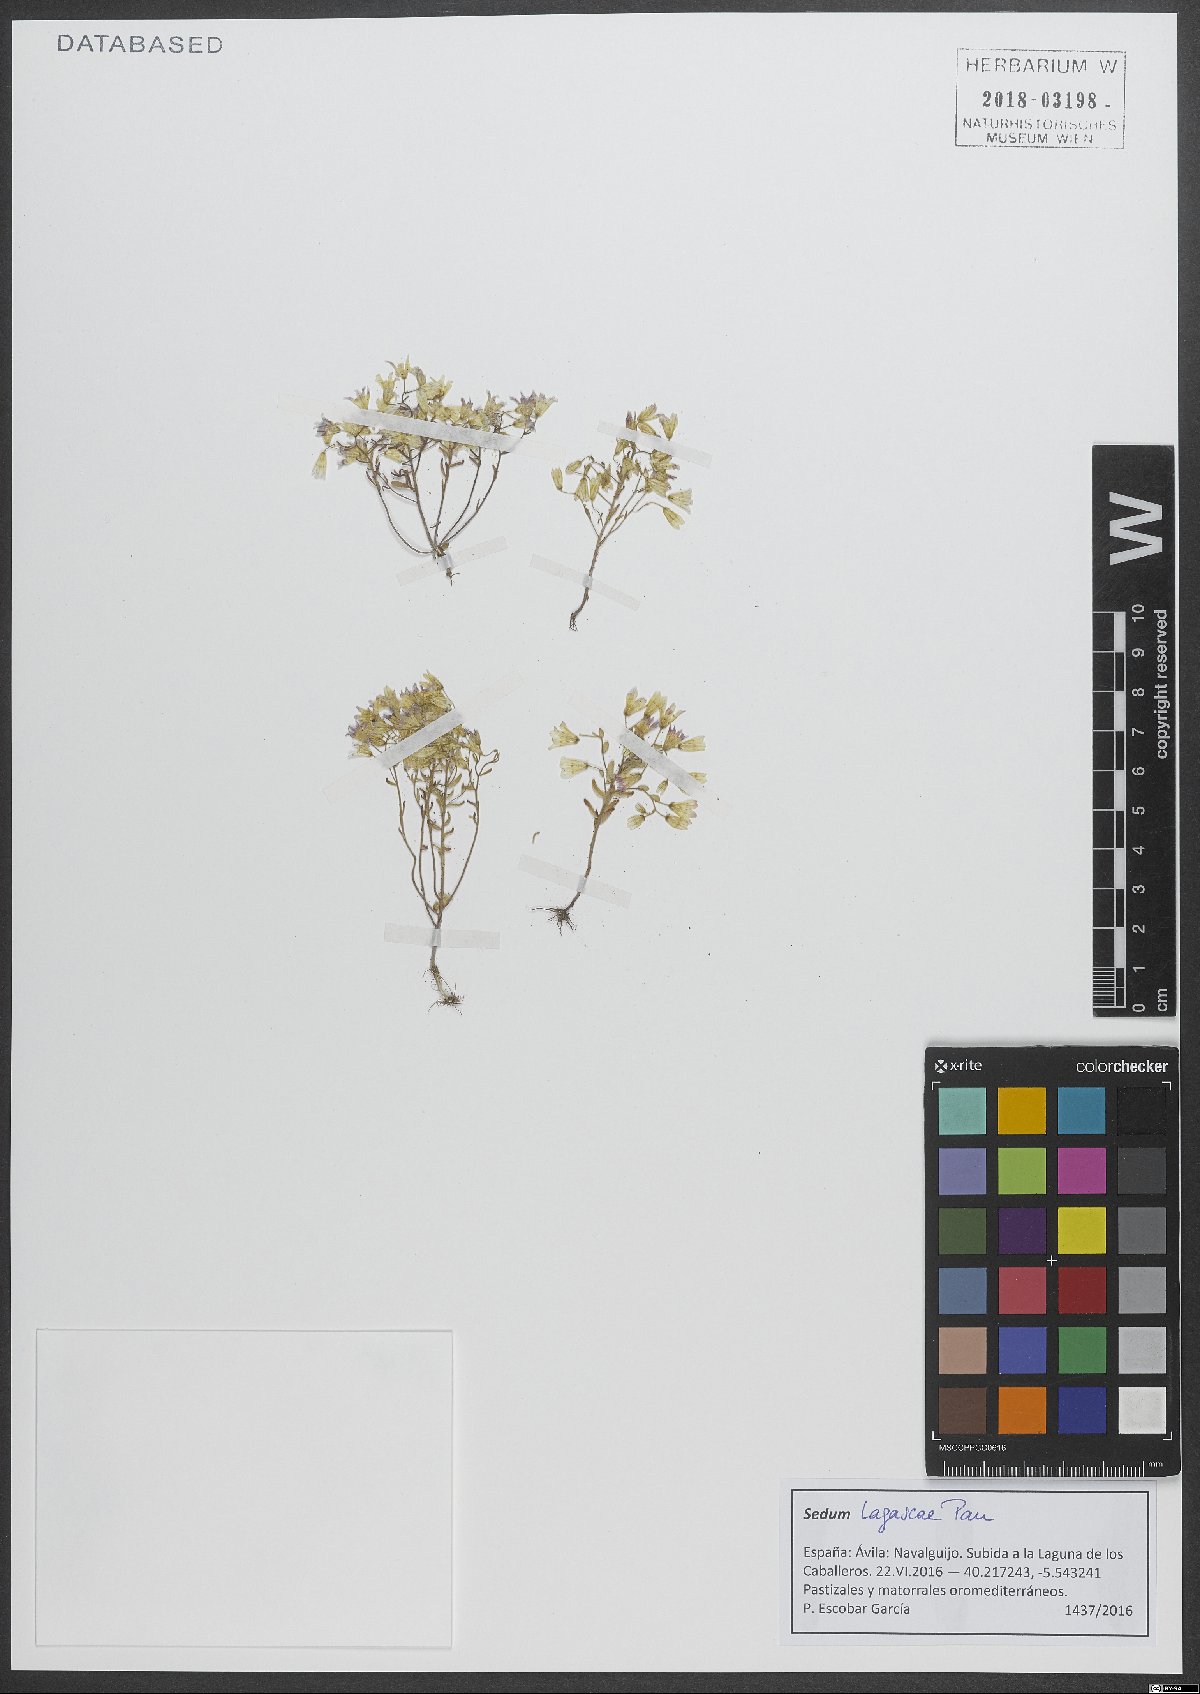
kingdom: Plantae
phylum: Tracheophyta
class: Magnoliopsida
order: Saxifragales
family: Crassulaceae
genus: Sedum
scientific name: Sedum lagascae
